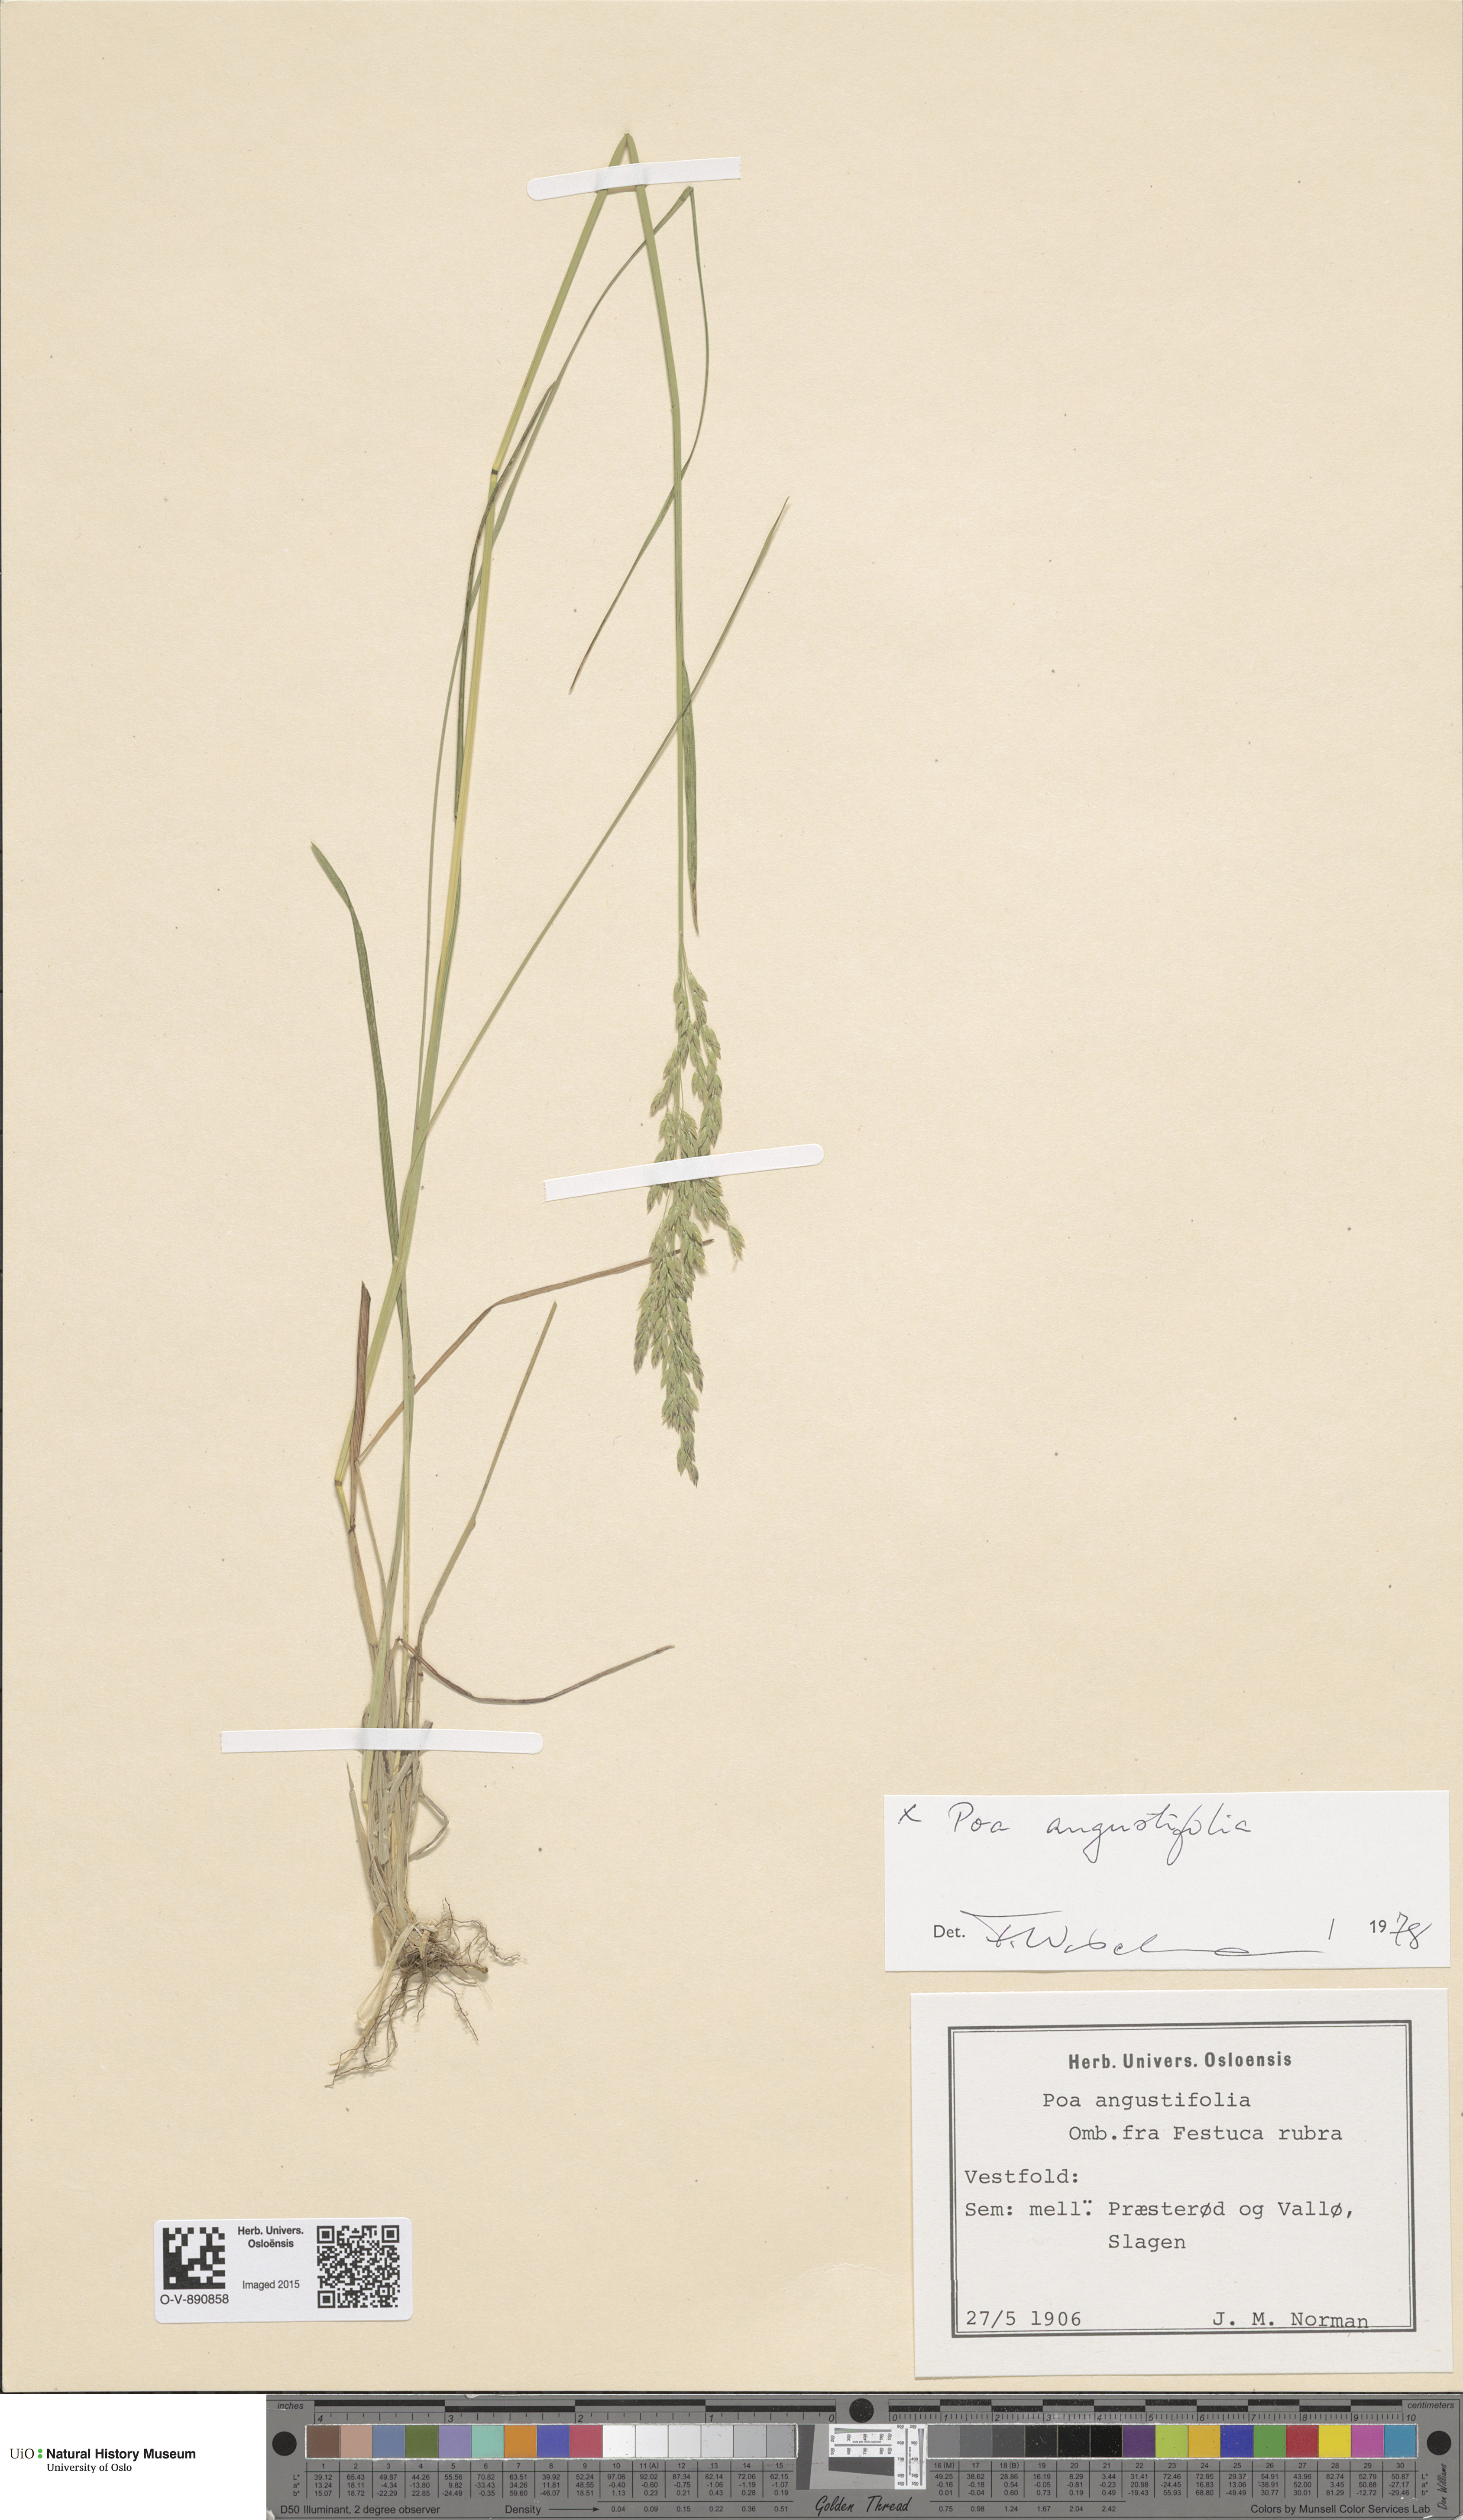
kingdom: Plantae
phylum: Tracheophyta
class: Liliopsida
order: Poales
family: Poaceae
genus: Poa
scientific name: Poa angustifolia
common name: Narrow-leaved meadow-grass
